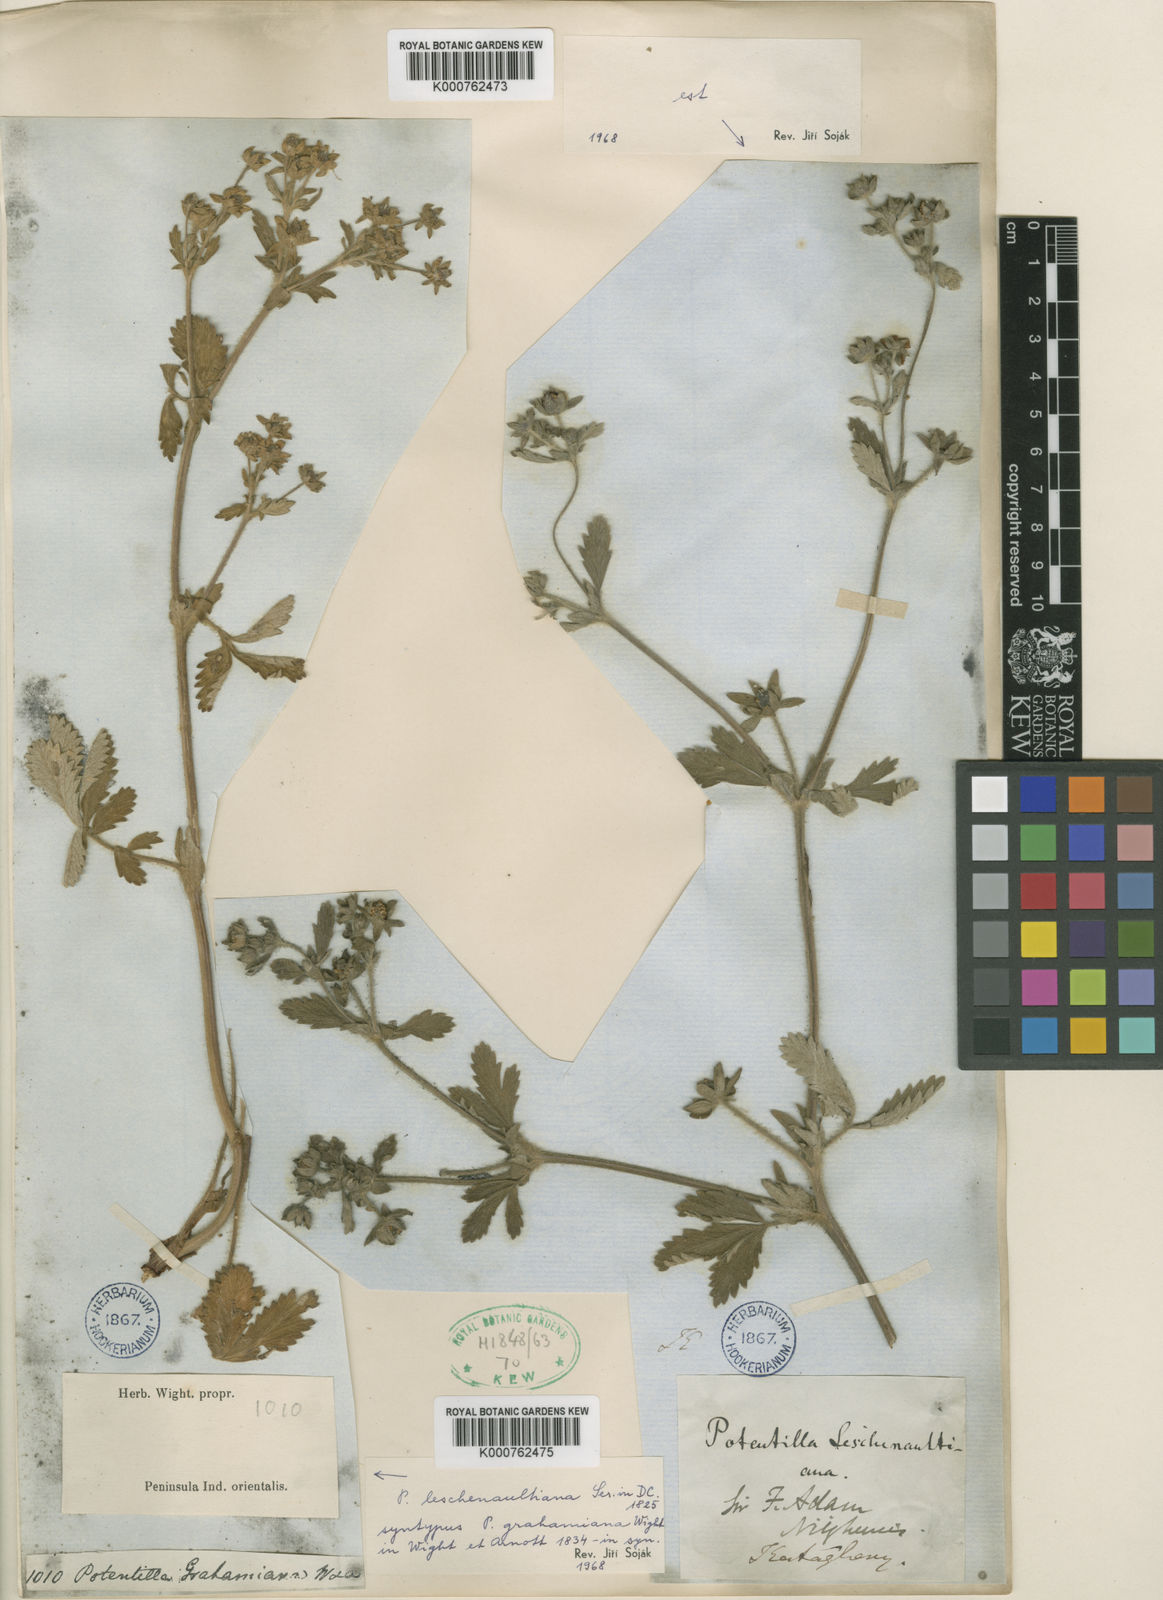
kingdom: Plantae
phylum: Tracheophyta
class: Magnoliopsida
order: Rosales
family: Rosaceae
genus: Potentilla
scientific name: Potentilla sundaica
